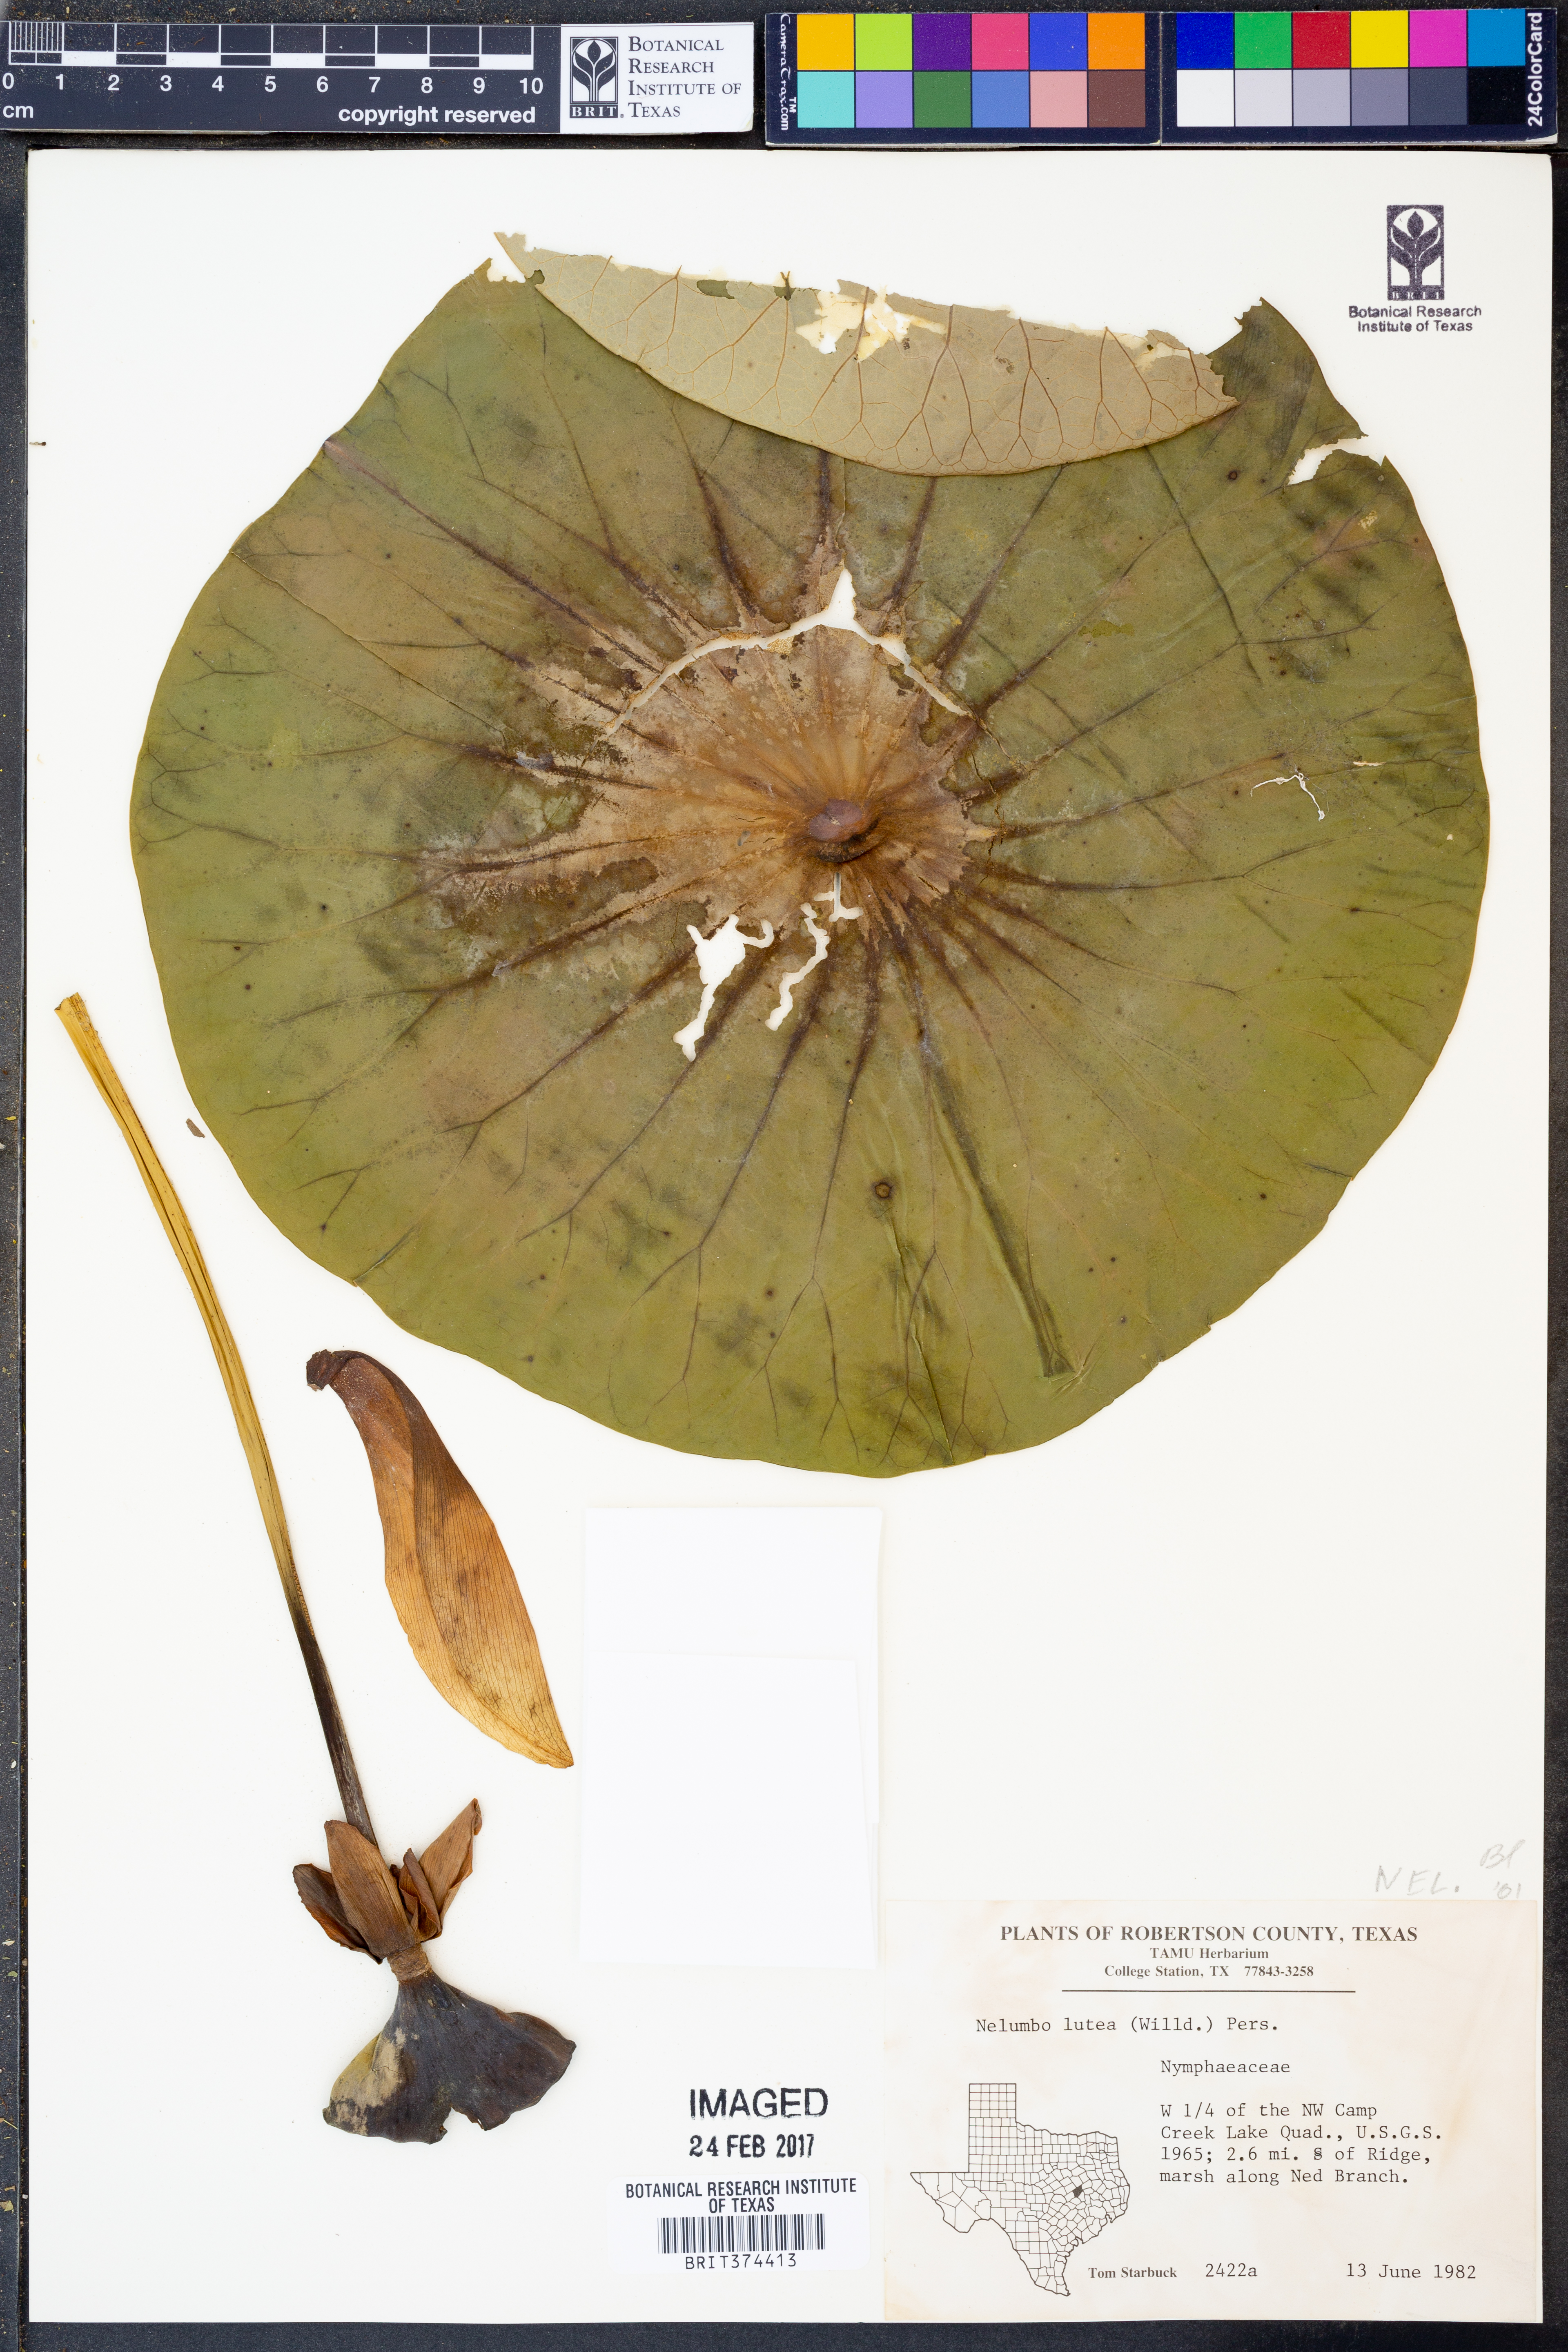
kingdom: Plantae
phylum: Tracheophyta
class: Magnoliopsida
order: Proteales
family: Nelumbonaceae
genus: Nelumbo
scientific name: Nelumbo lutea
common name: American lotus
